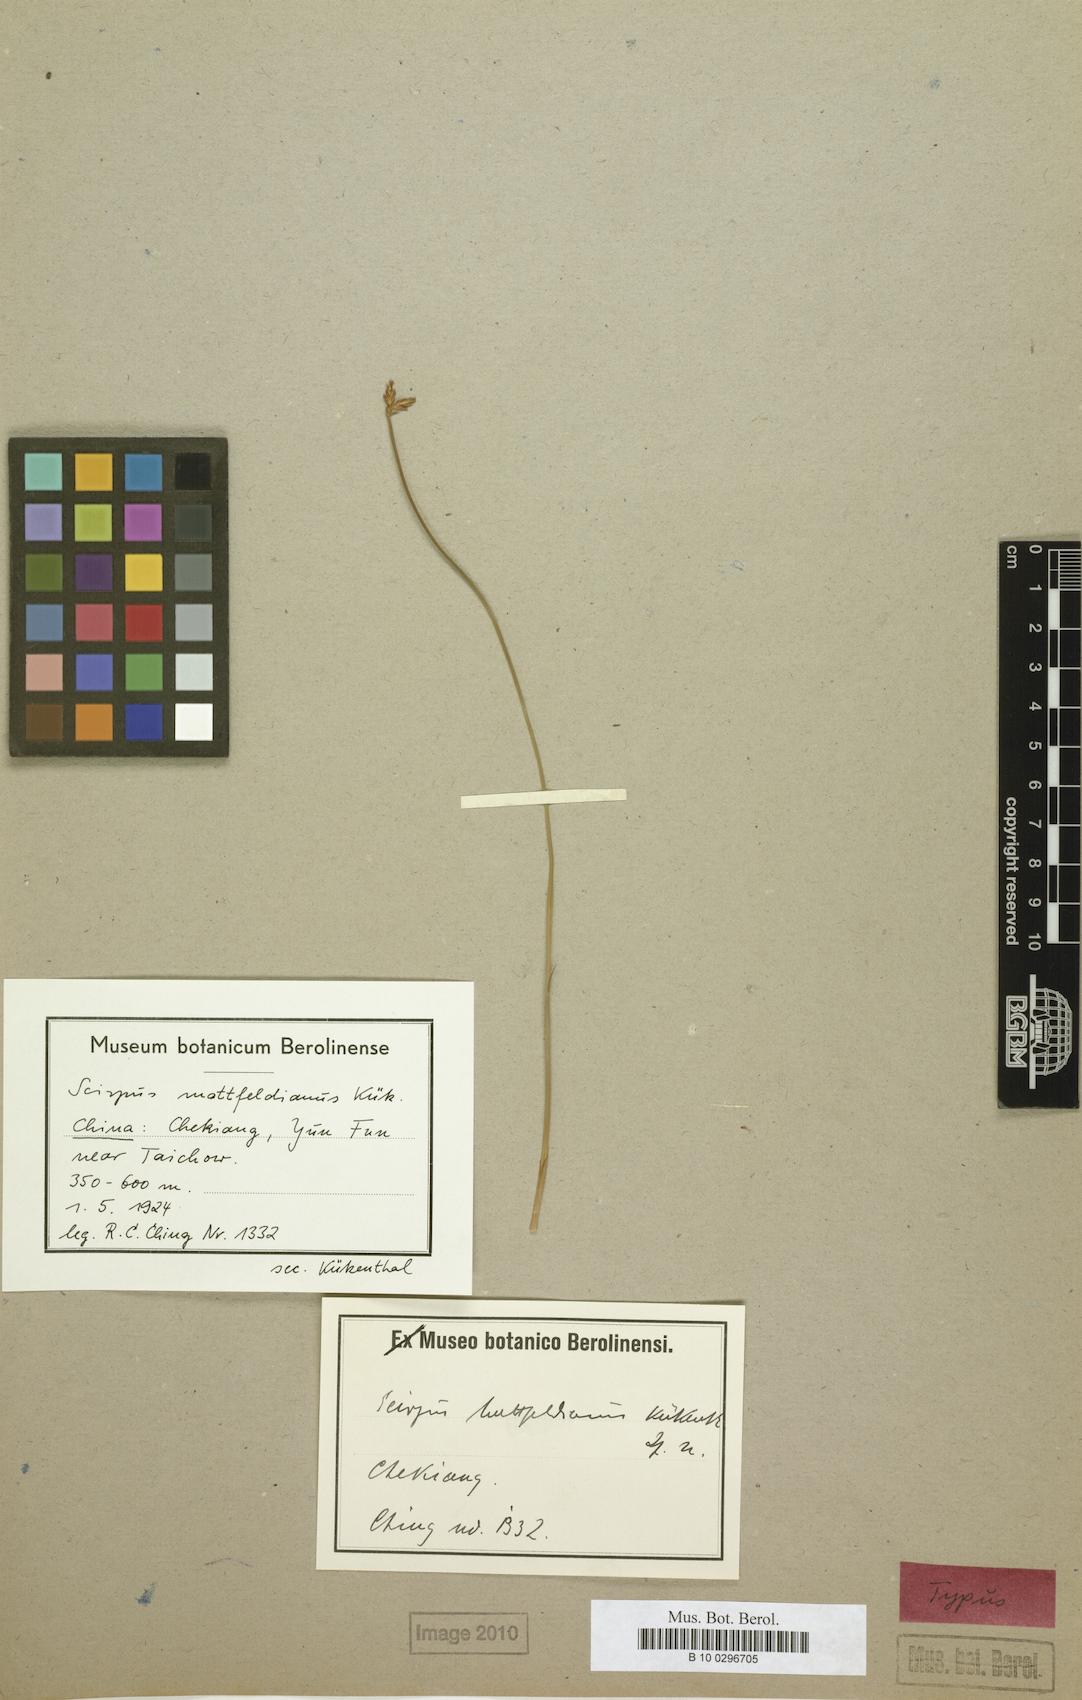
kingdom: Plantae
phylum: Tracheophyta
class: Liliopsida
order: Poales
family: Cyperaceae
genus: Trichophorum
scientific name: Trichophorum mattfeldianum
